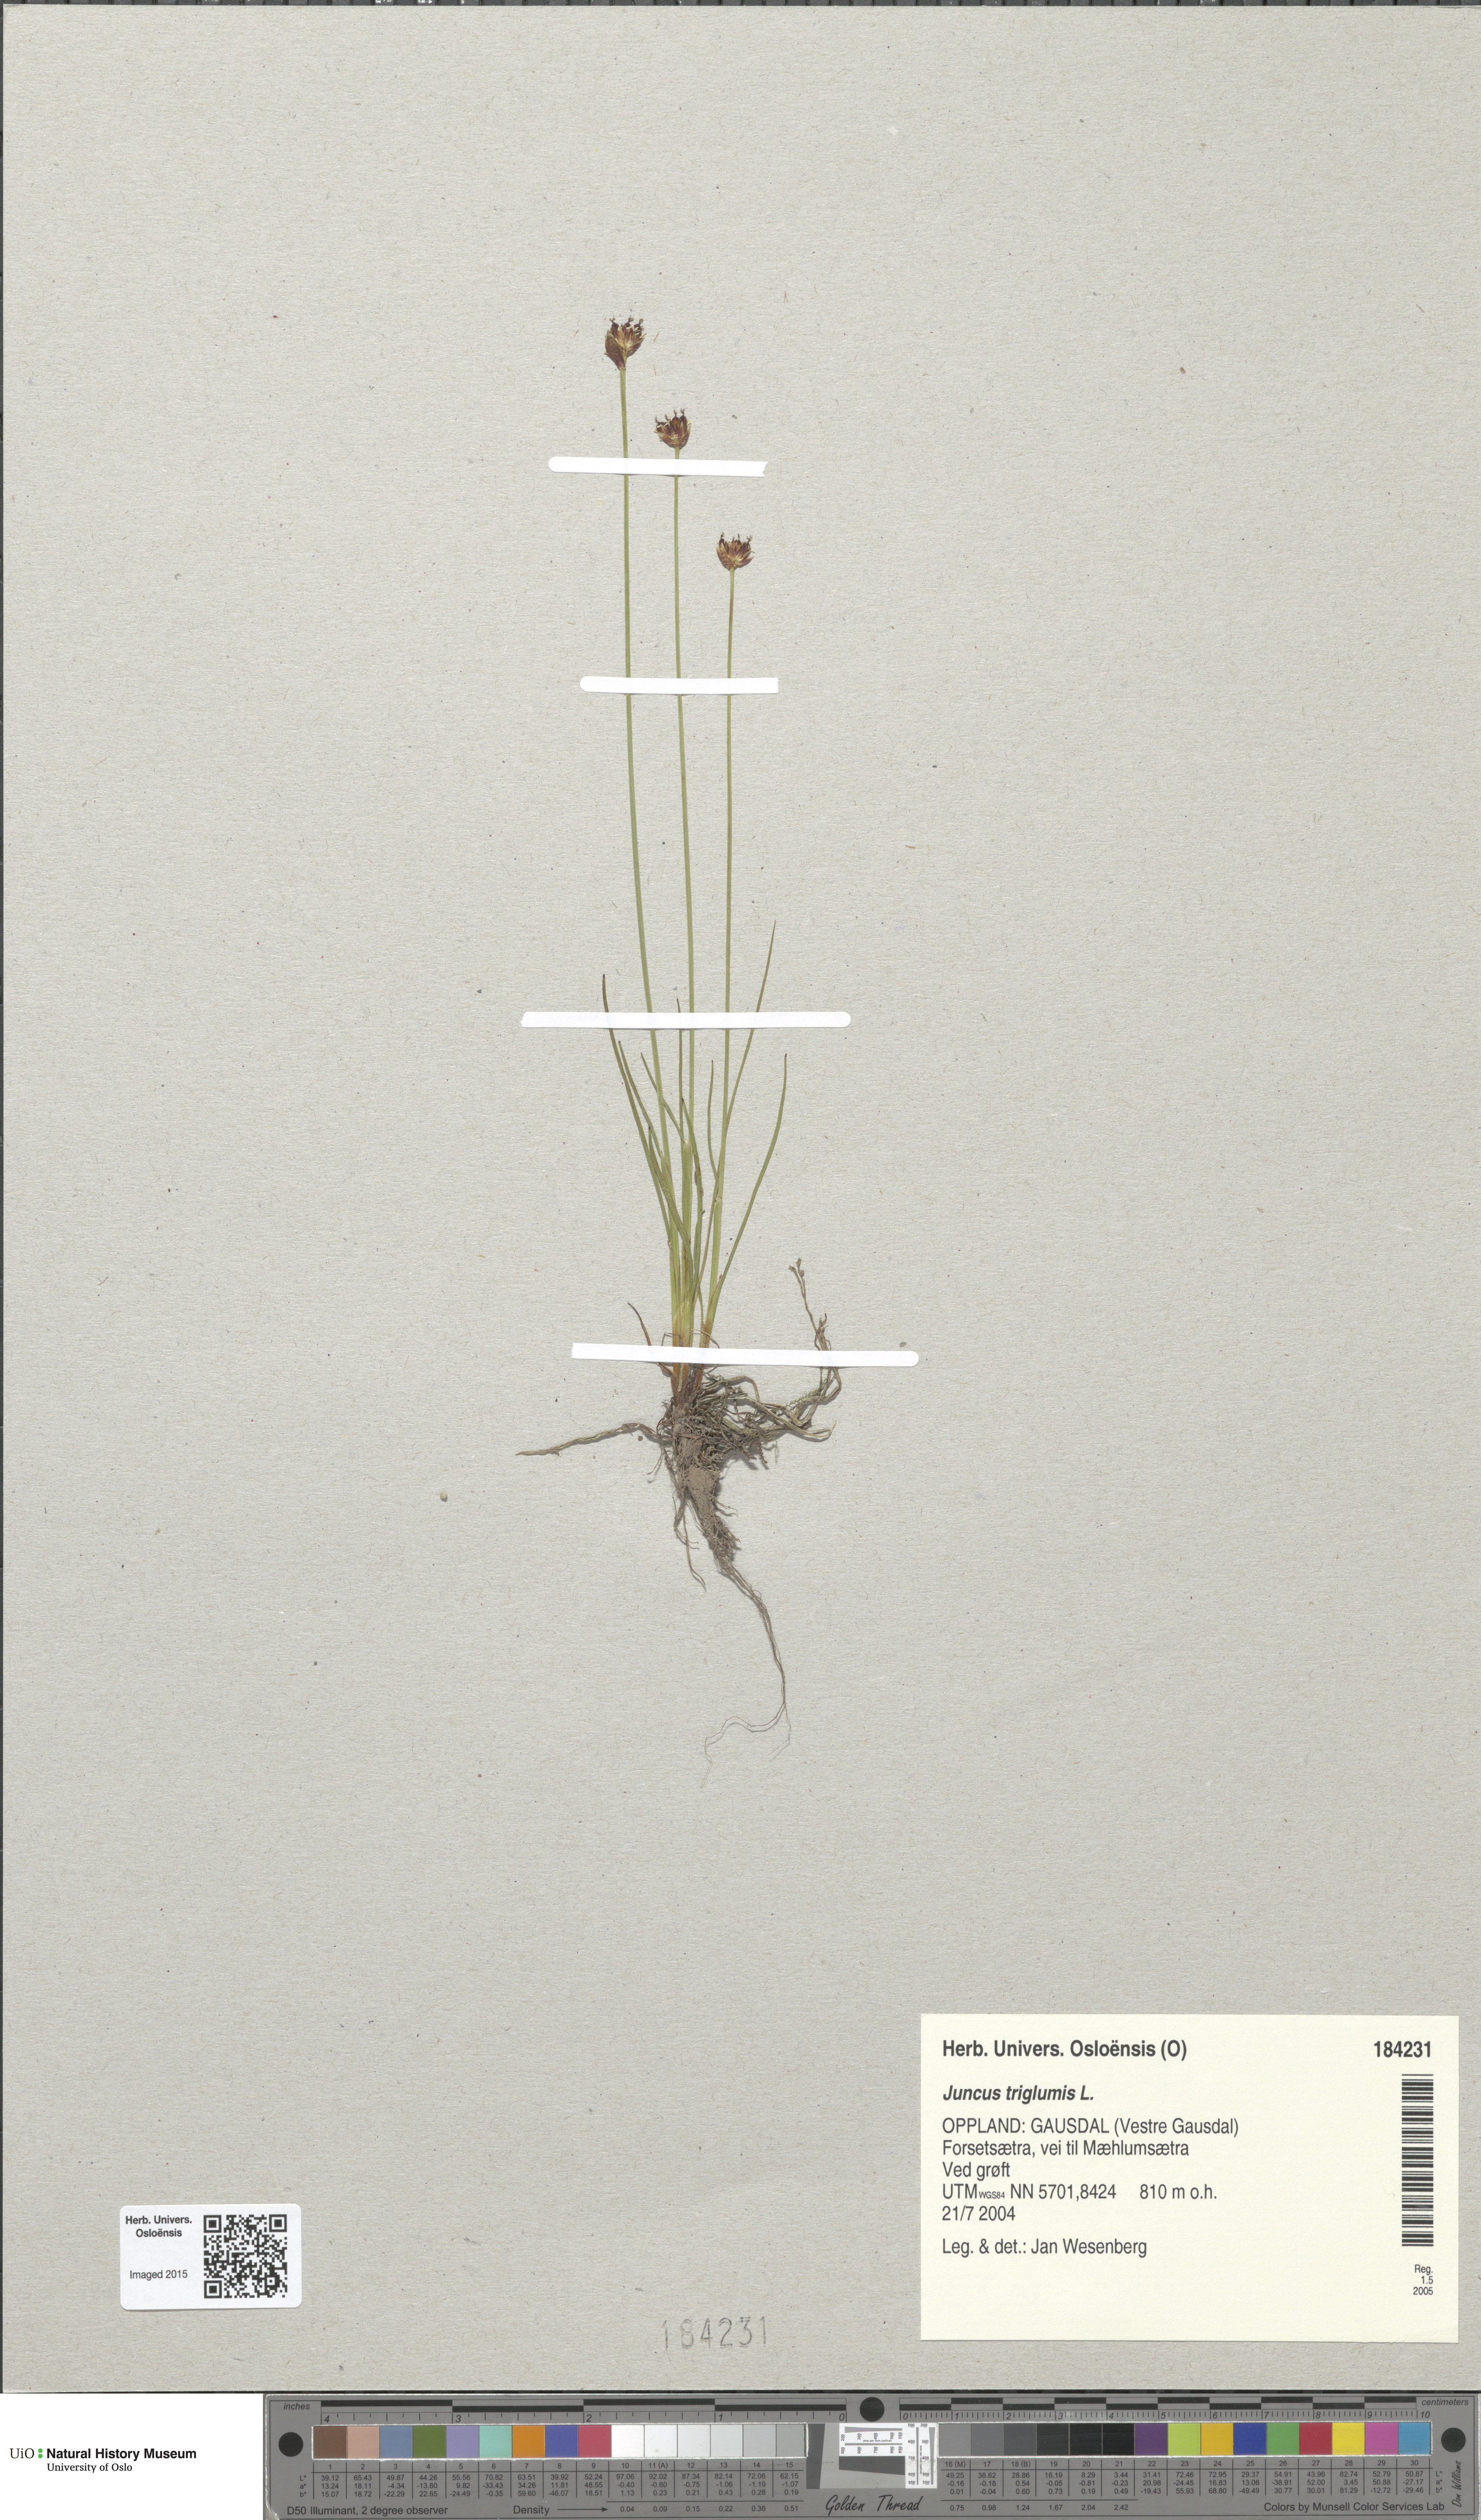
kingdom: Plantae
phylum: Tracheophyta
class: Liliopsida
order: Poales
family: Juncaceae
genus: Juncus
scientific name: Juncus triglumis
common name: Three-flowered rush
